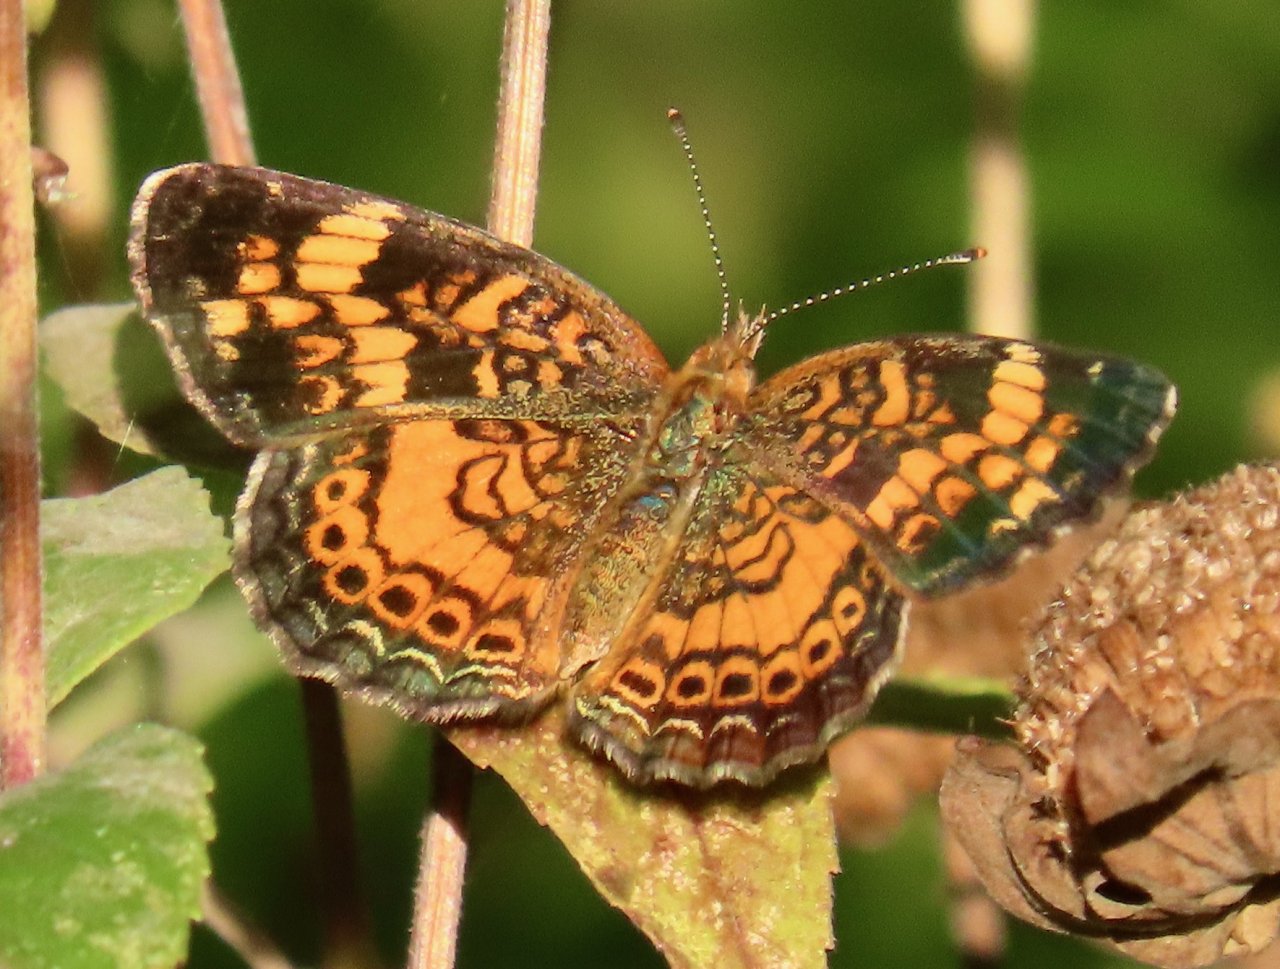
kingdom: Animalia
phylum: Arthropoda
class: Insecta
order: Lepidoptera
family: Nymphalidae
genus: Phyciodes
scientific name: Phyciodes tharos
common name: Pearl Crescent
